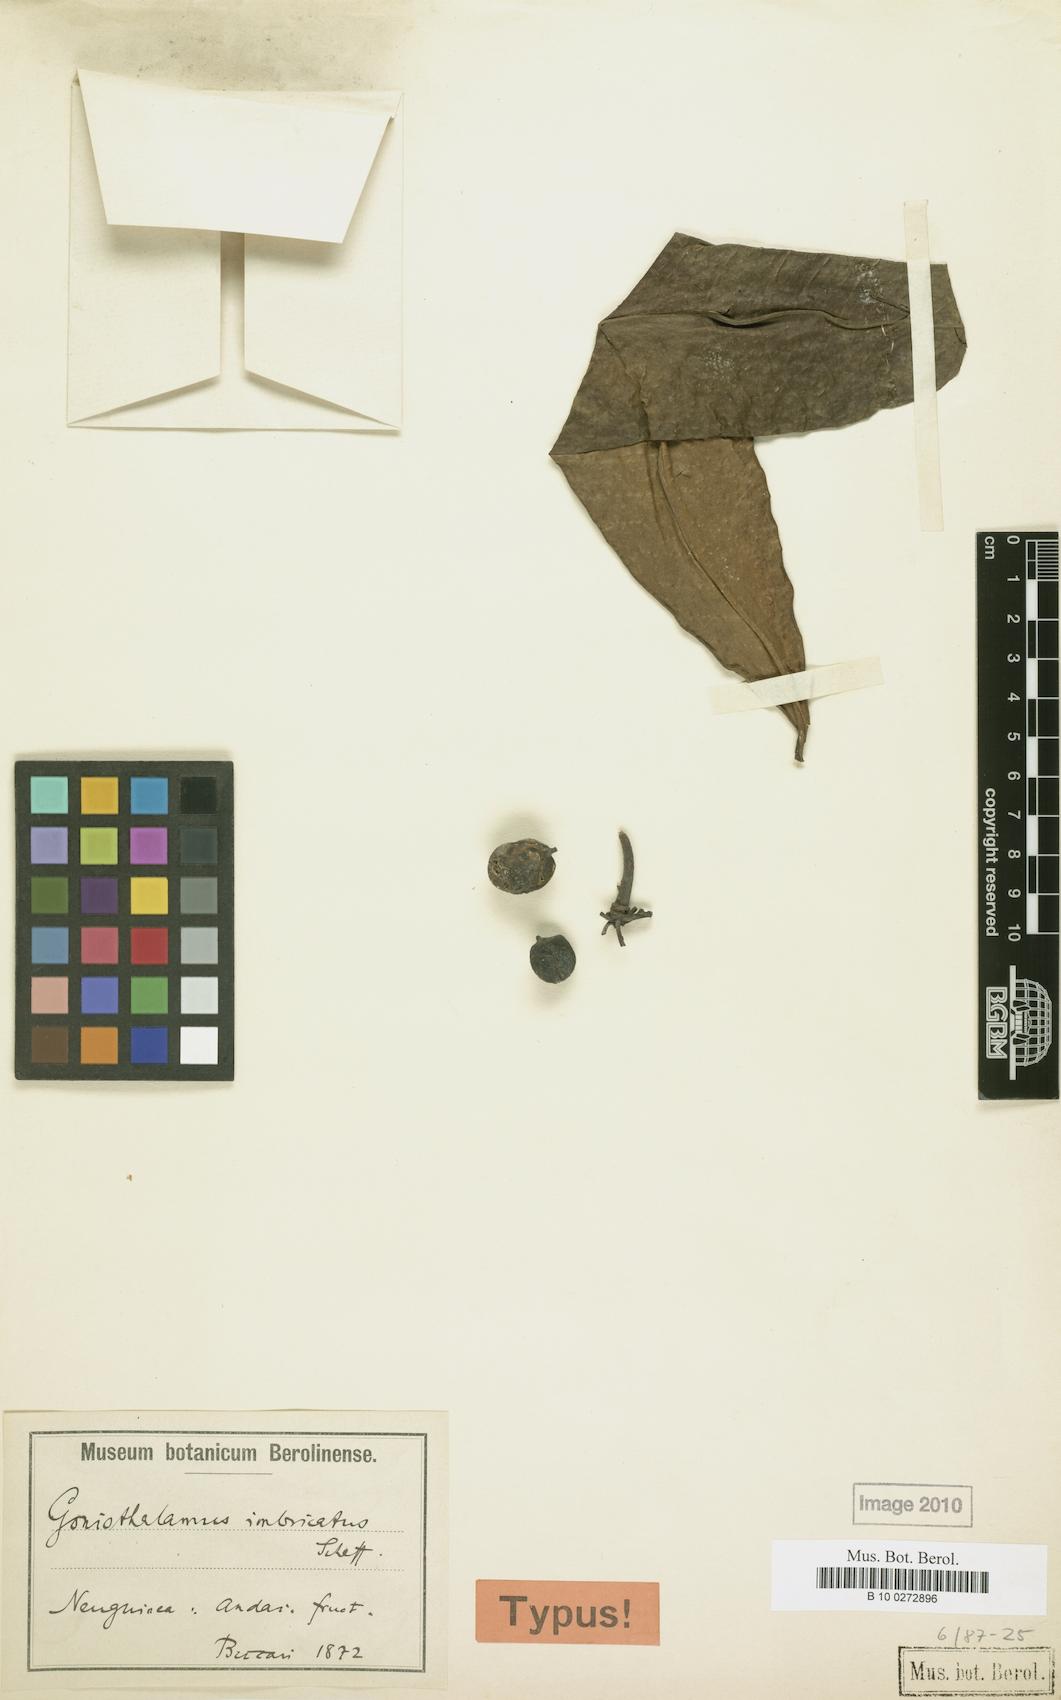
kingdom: Plantae
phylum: Tracheophyta
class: Magnoliopsida
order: Magnoliales
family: Annonaceae
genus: Goniothalamus
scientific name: Goniothalamus imbricatus
